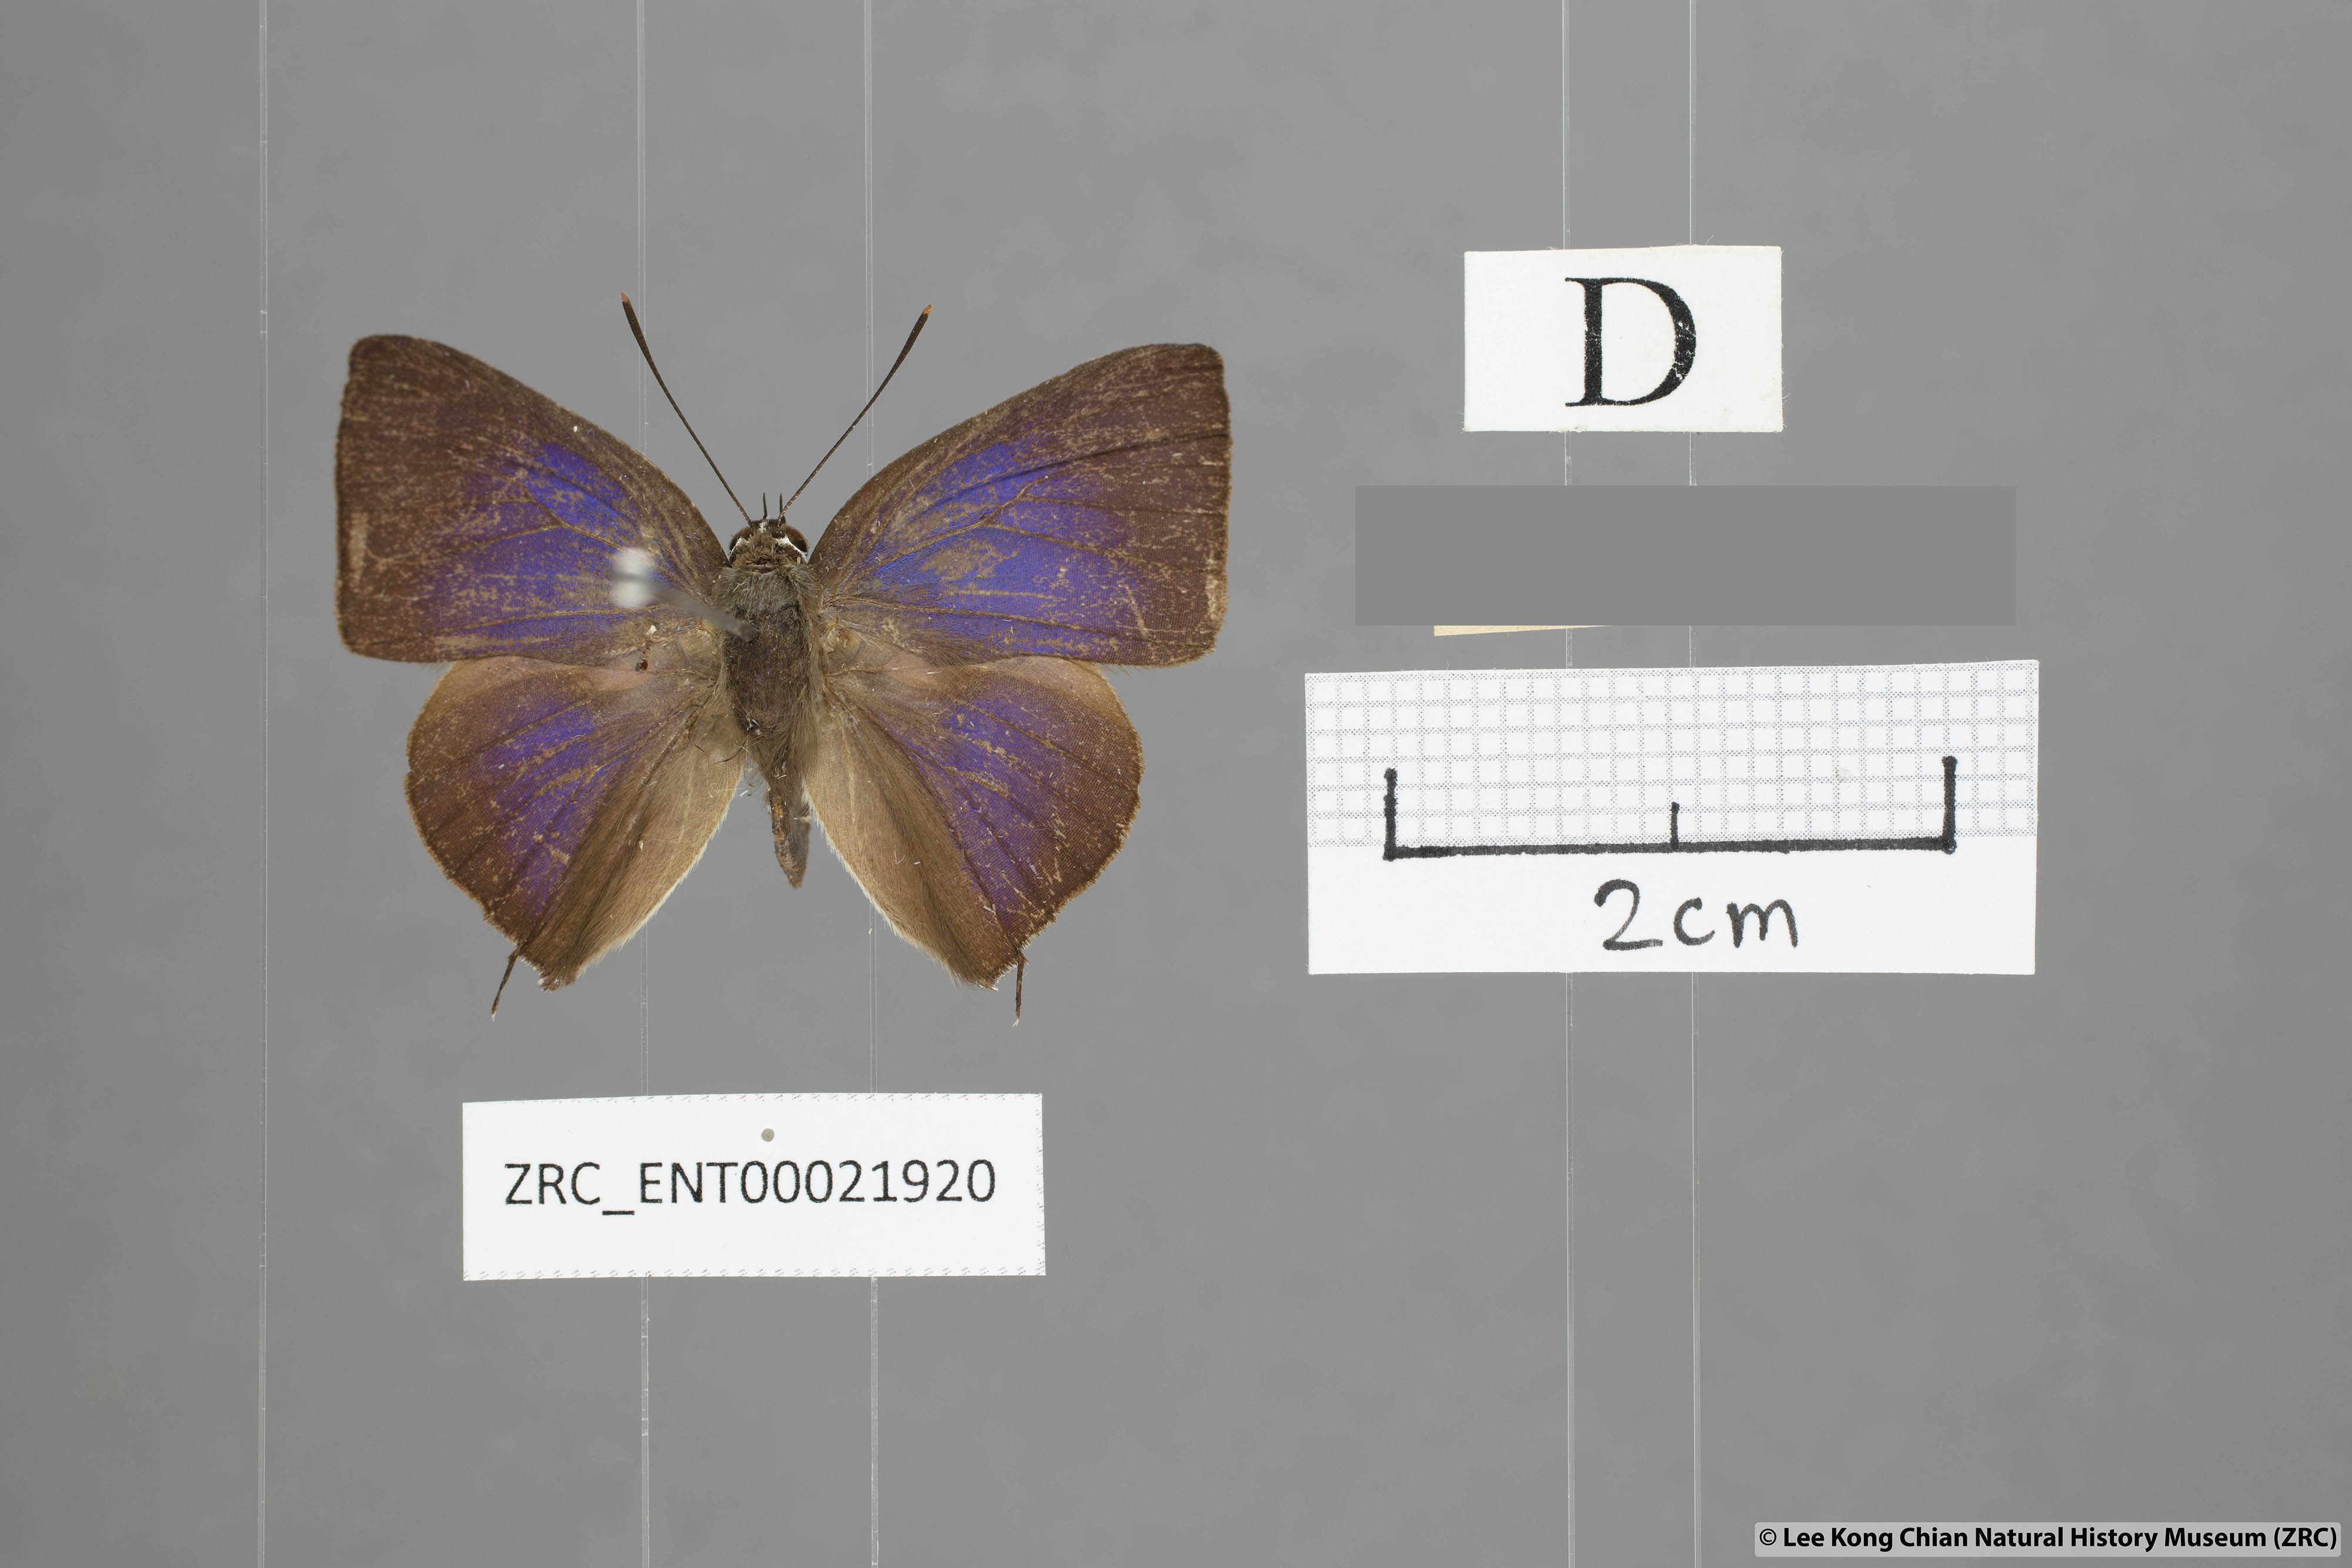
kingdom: Animalia
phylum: Arthropoda
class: Insecta
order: Lepidoptera
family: Lycaenidae
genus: Deudorix
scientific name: Deudorix
